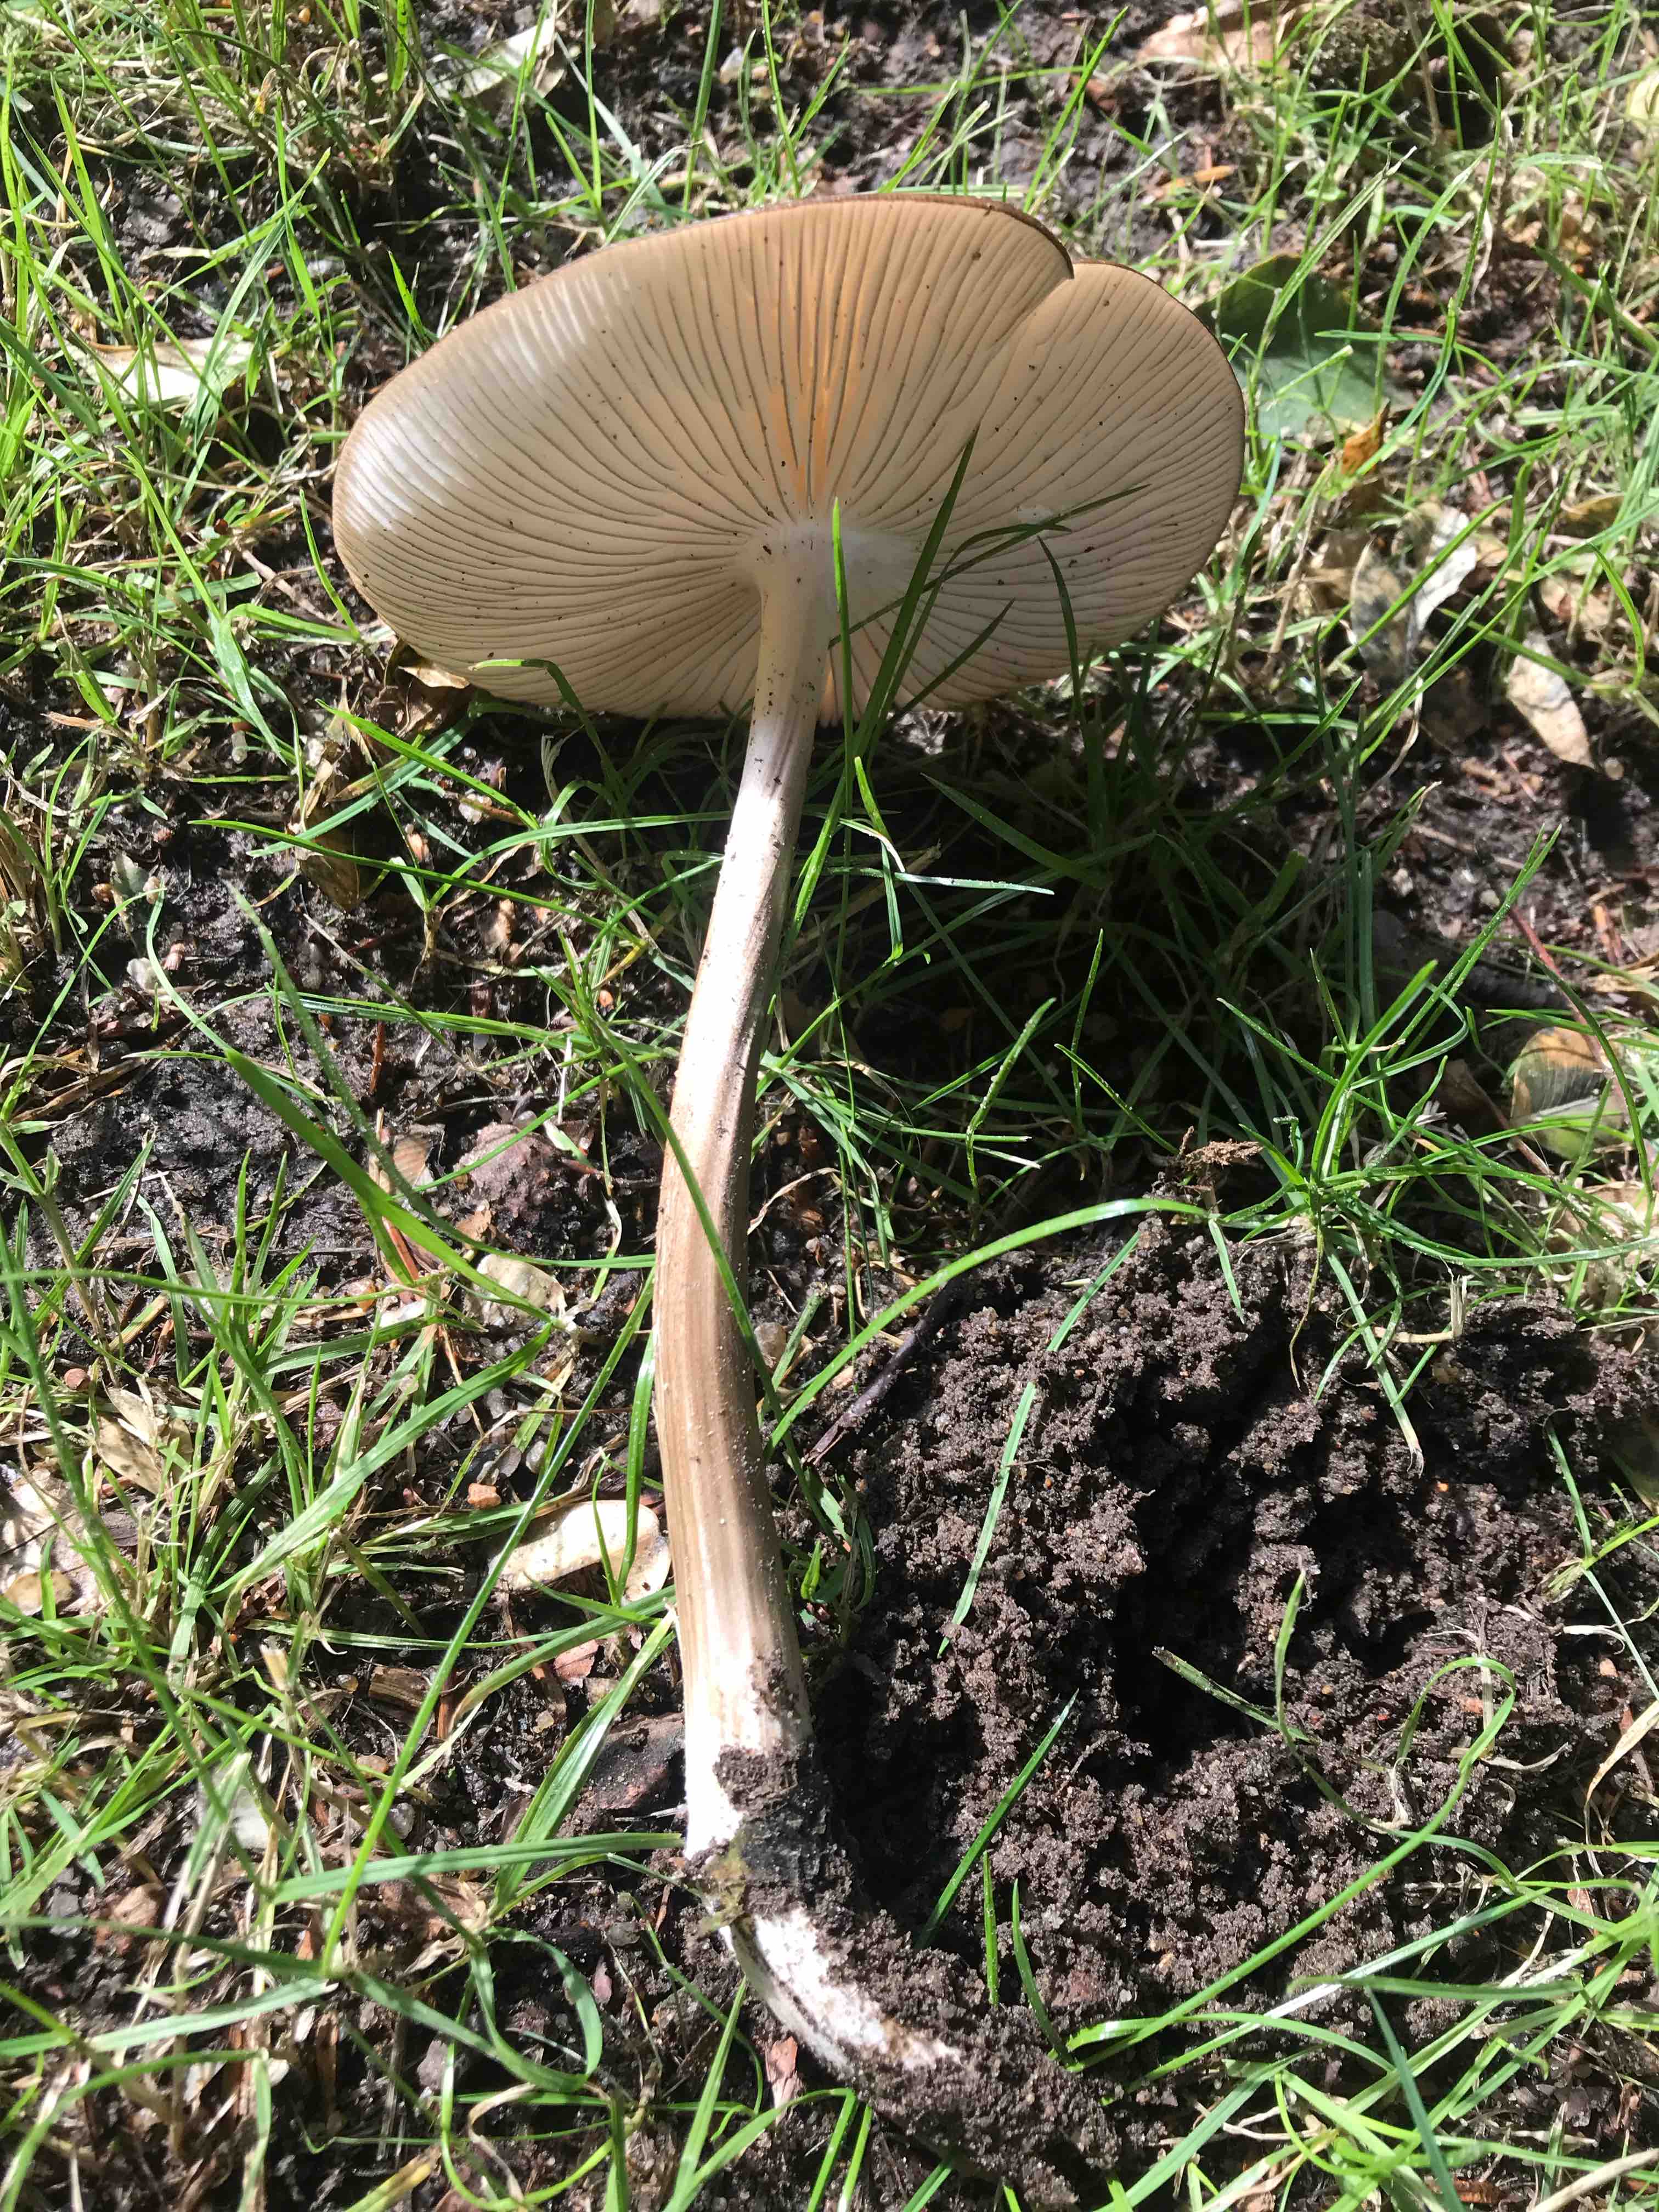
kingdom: Fungi
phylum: Basidiomycota
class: Agaricomycetes
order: Agaricales
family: Physalacriaceae
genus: Hymenopellis
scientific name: Hymenopellis radicata
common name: almindelig pælerodshat
